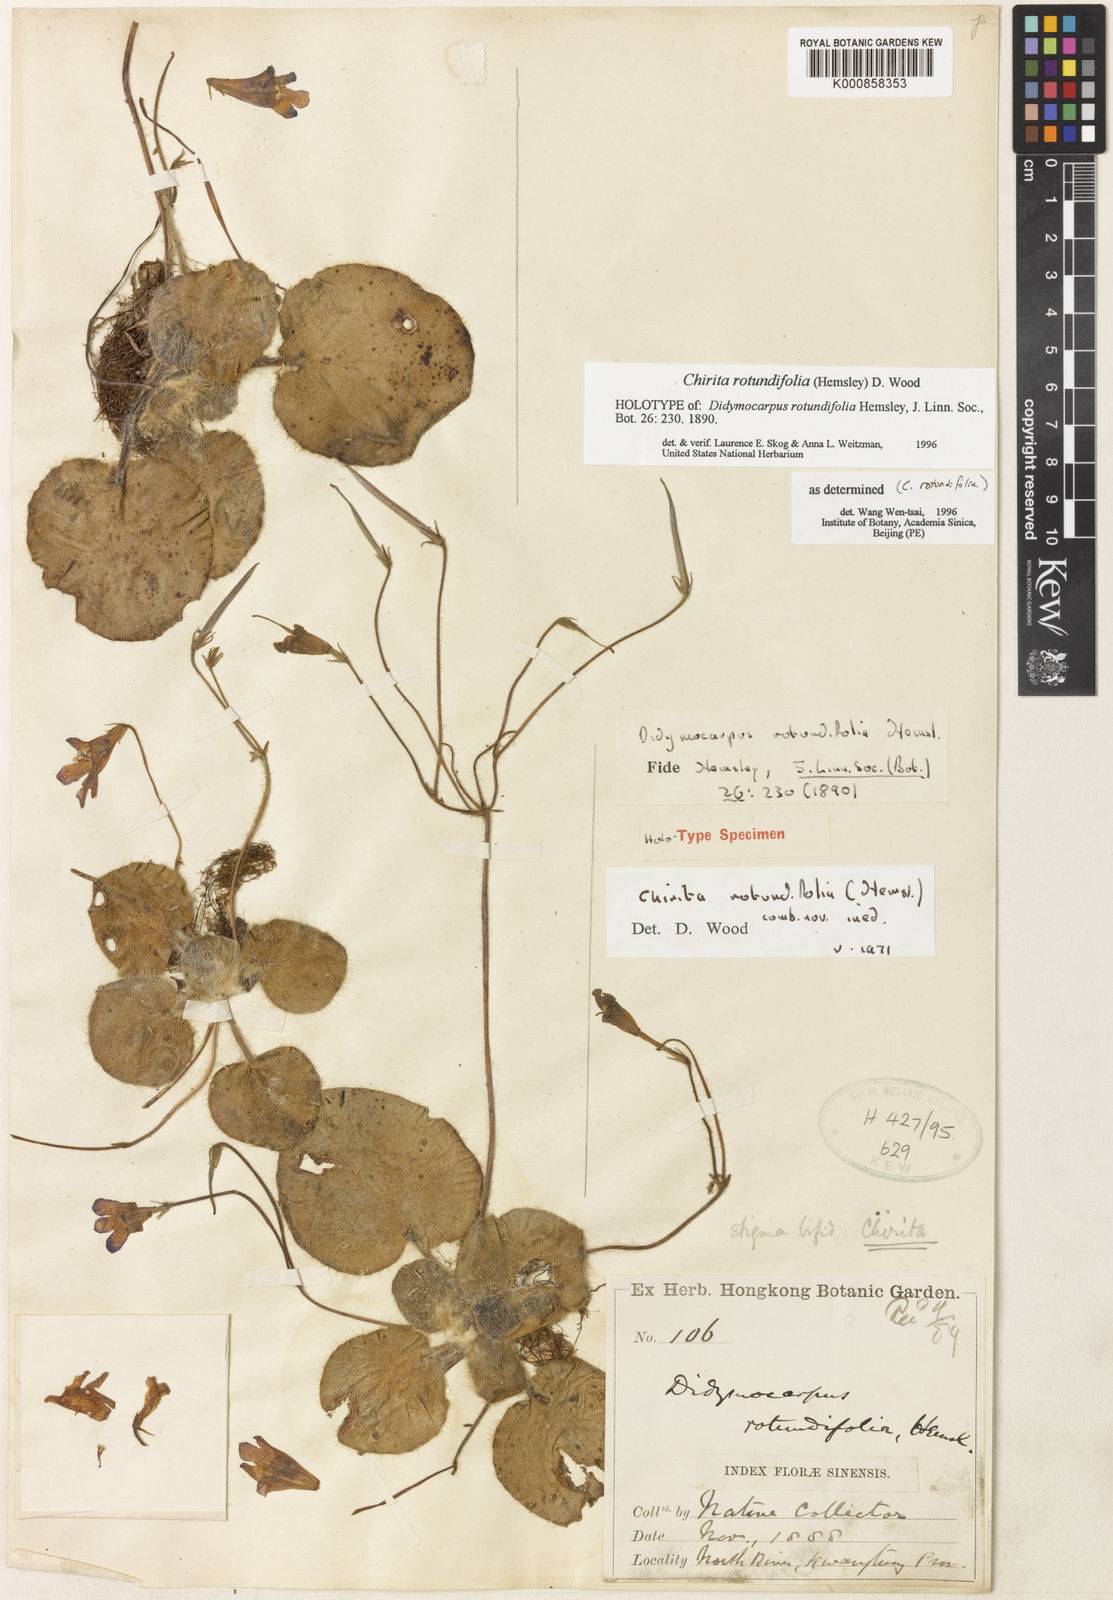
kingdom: Plantae
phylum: Tracheophyta
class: Magnoliopsida
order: Lamiales
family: Gesneriaceae
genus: Primulina
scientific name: Primulina rotundifolia
